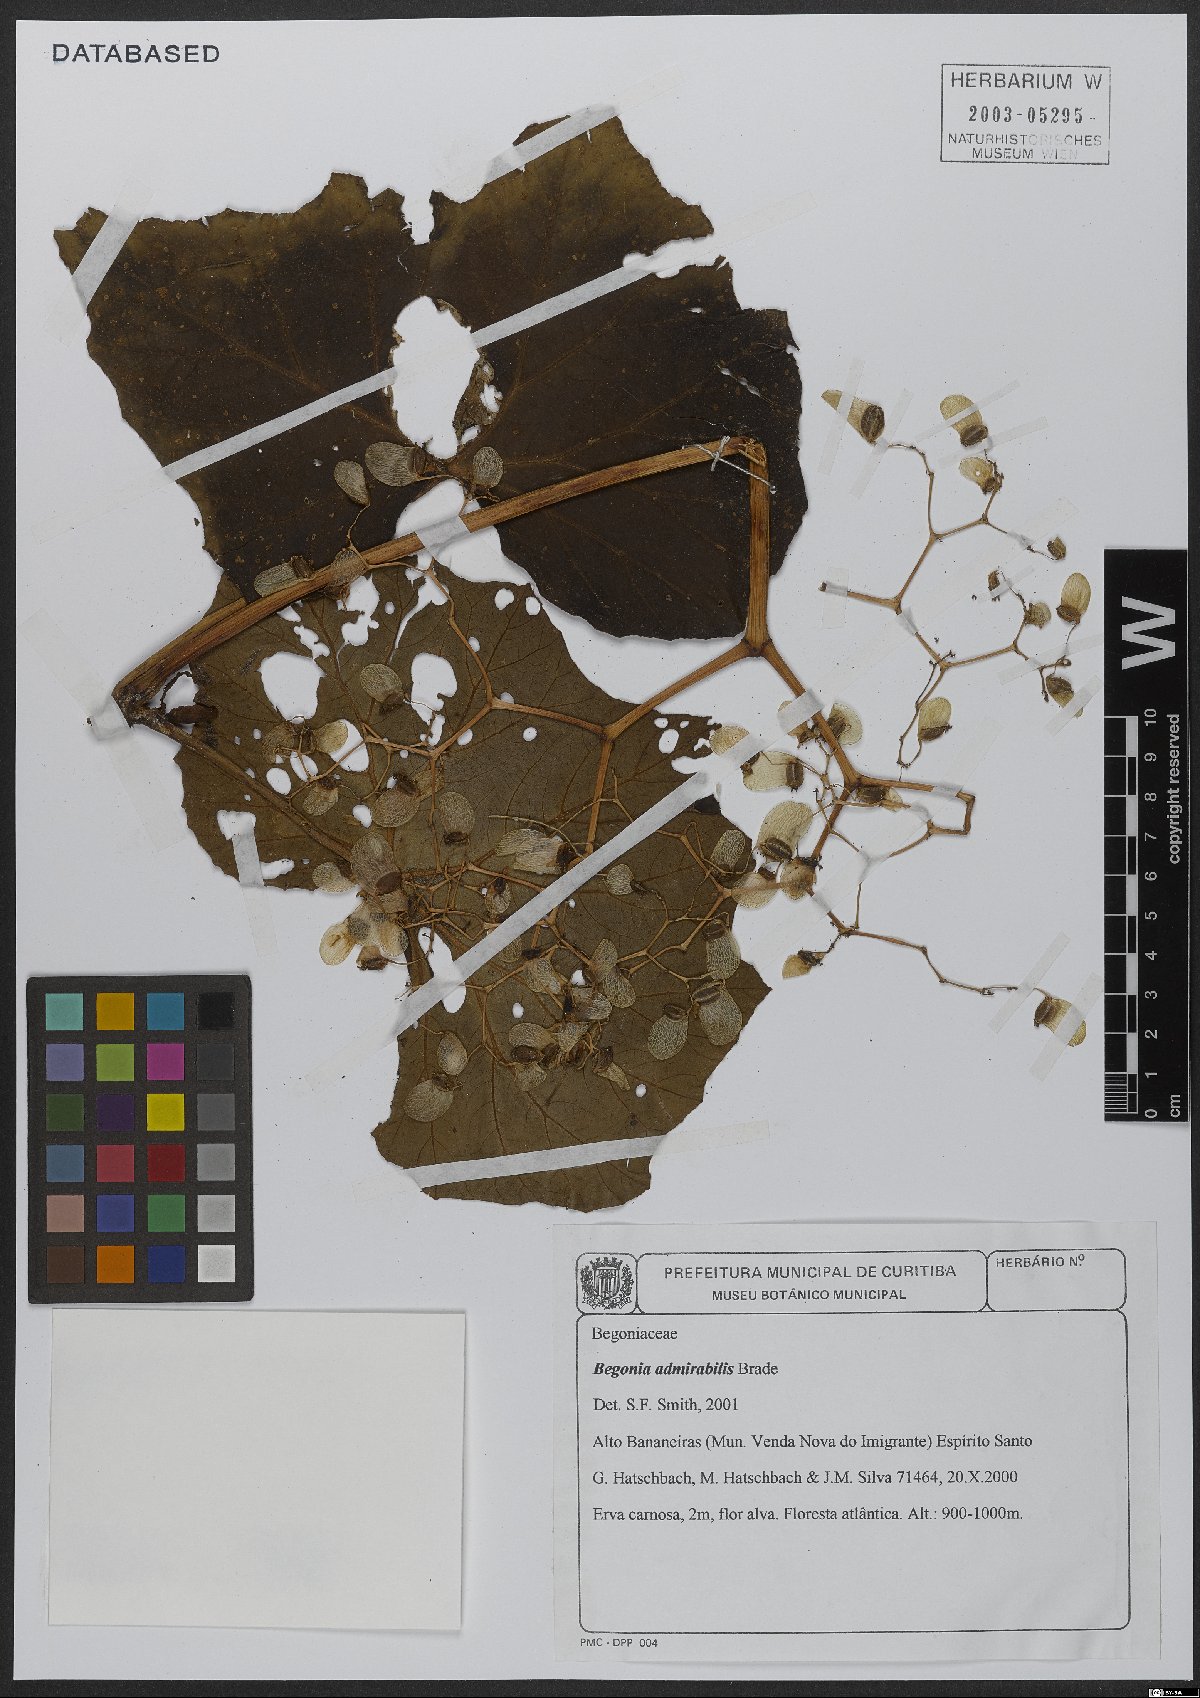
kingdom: Plantae
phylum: Tracheophyta
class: Magnoliopsida
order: Cucurbitales
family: Begoniaceae
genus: Begonia
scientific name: Begonia admirabilis
